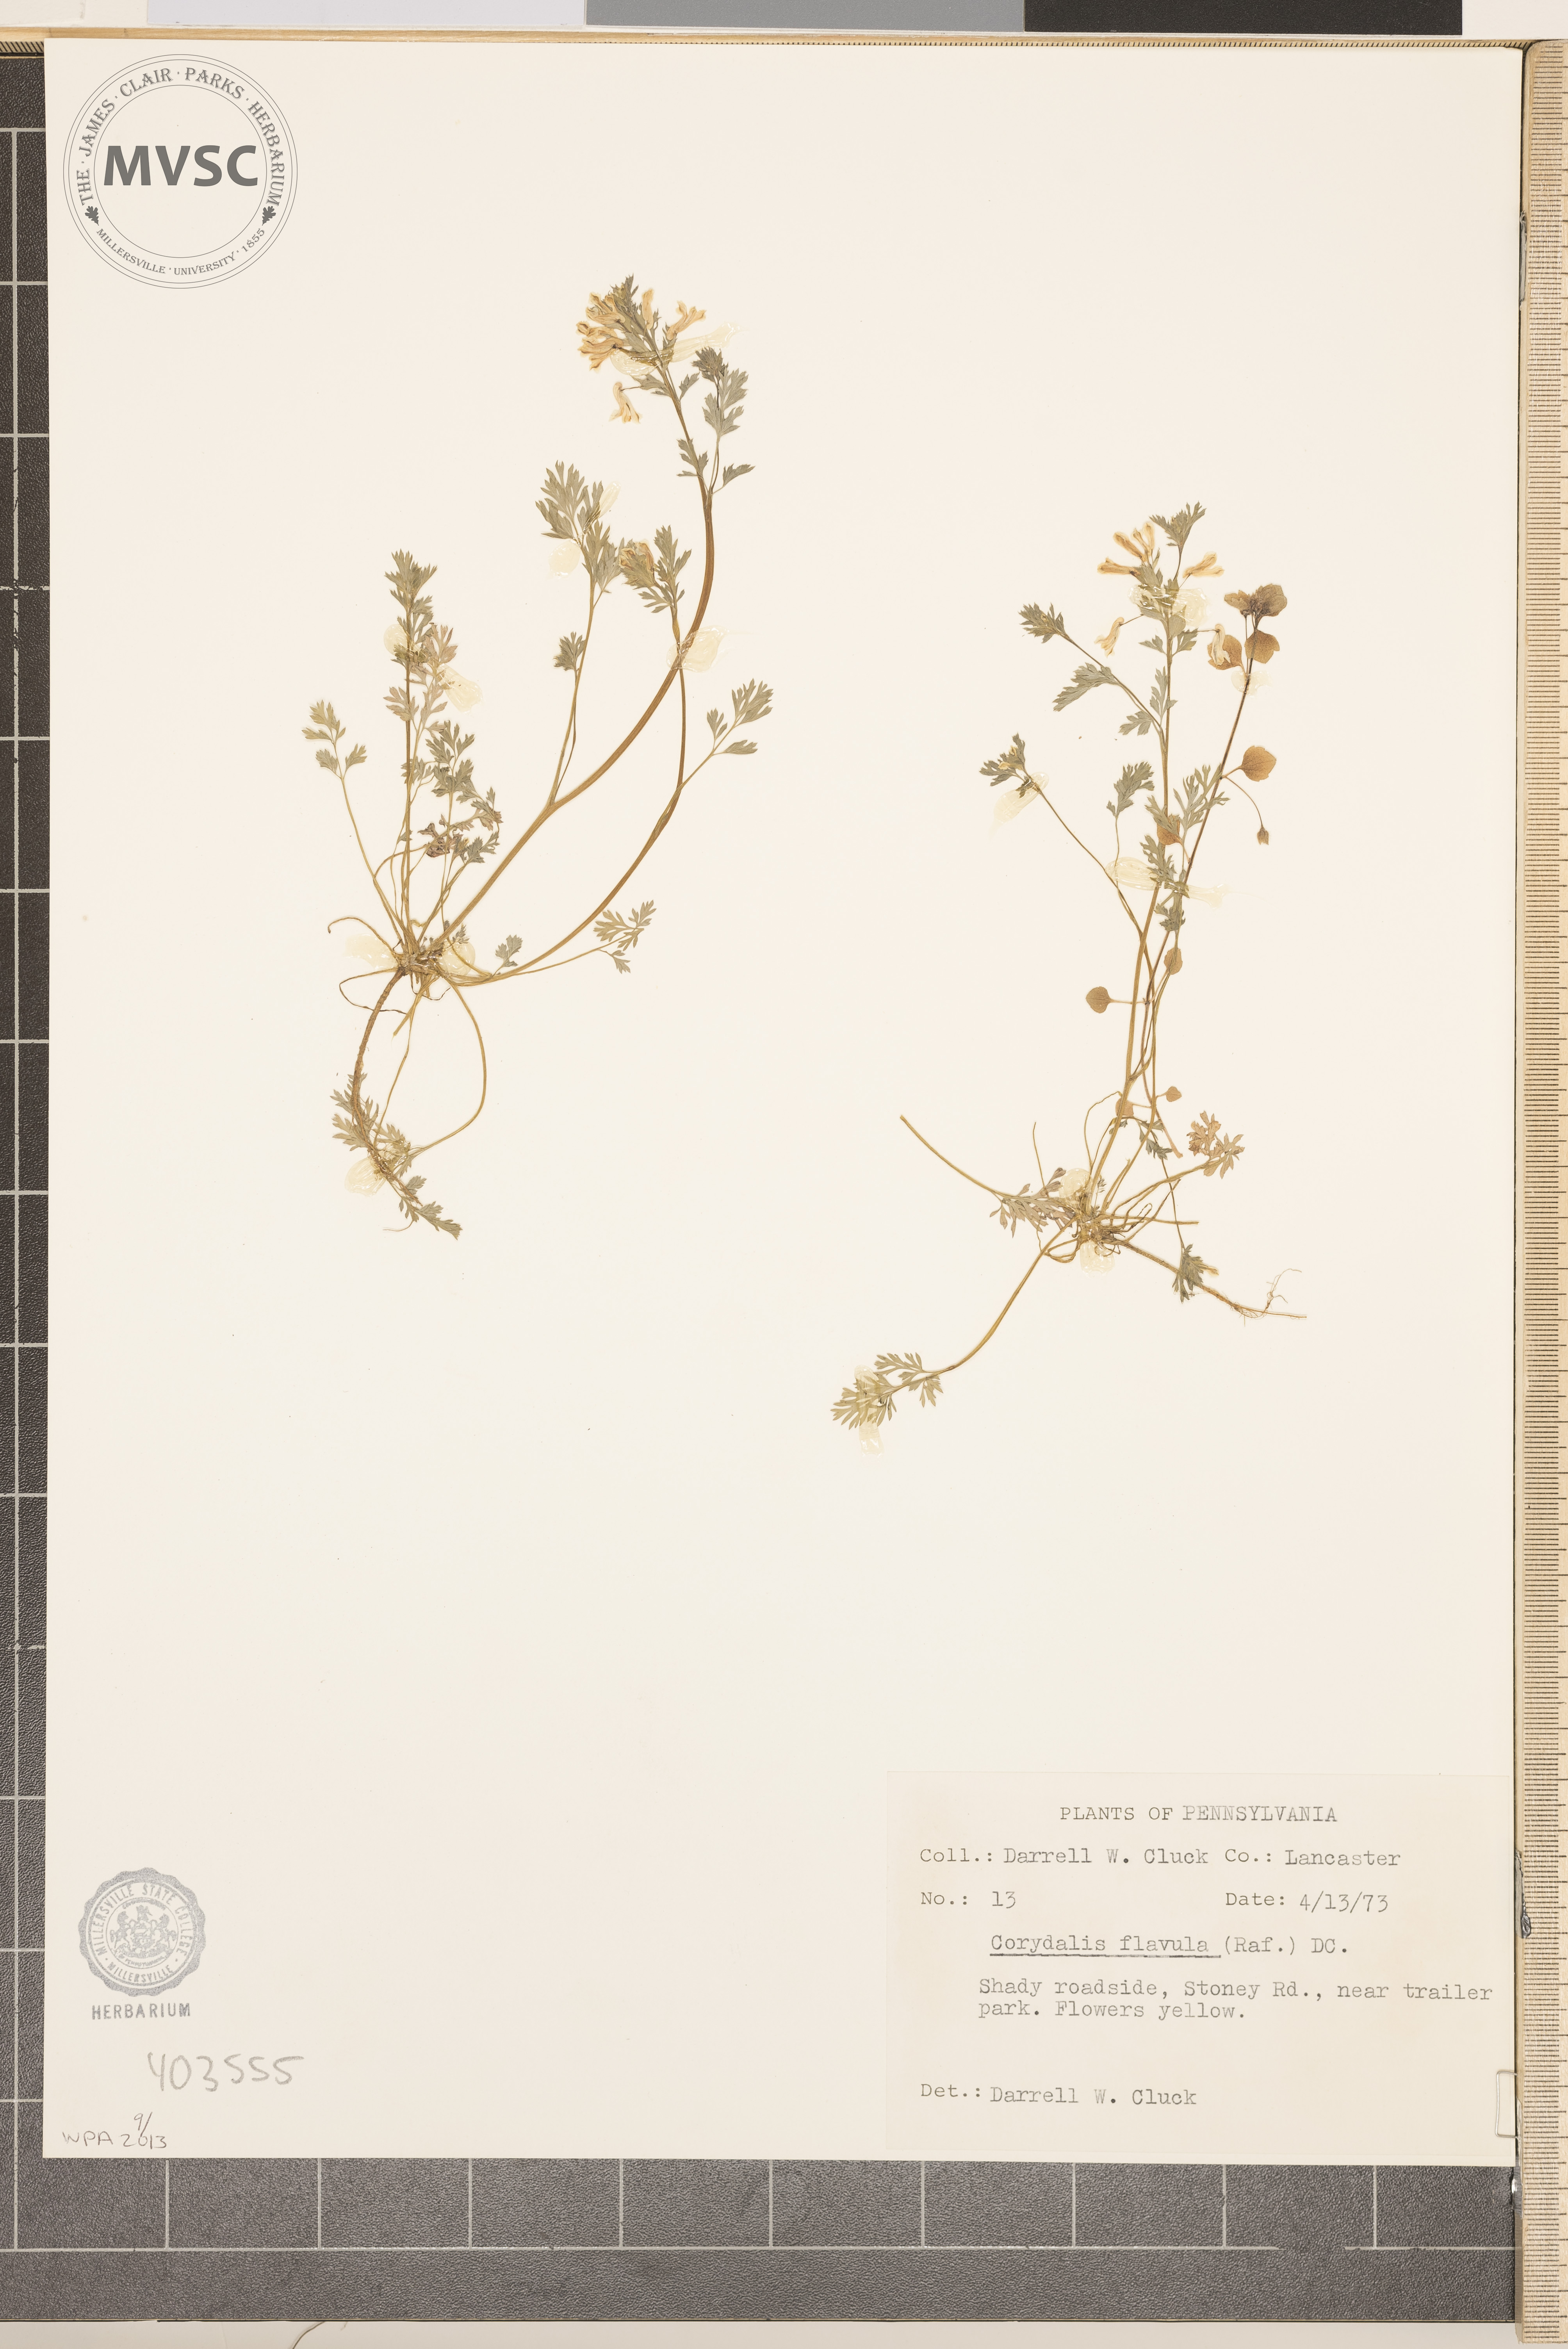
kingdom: Plantae
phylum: Tracheophyta
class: Magnoliopsida
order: Ranunculales
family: Papaveraceae
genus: Corydalis
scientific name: Corydalis flavula
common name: Yellow corydalis
